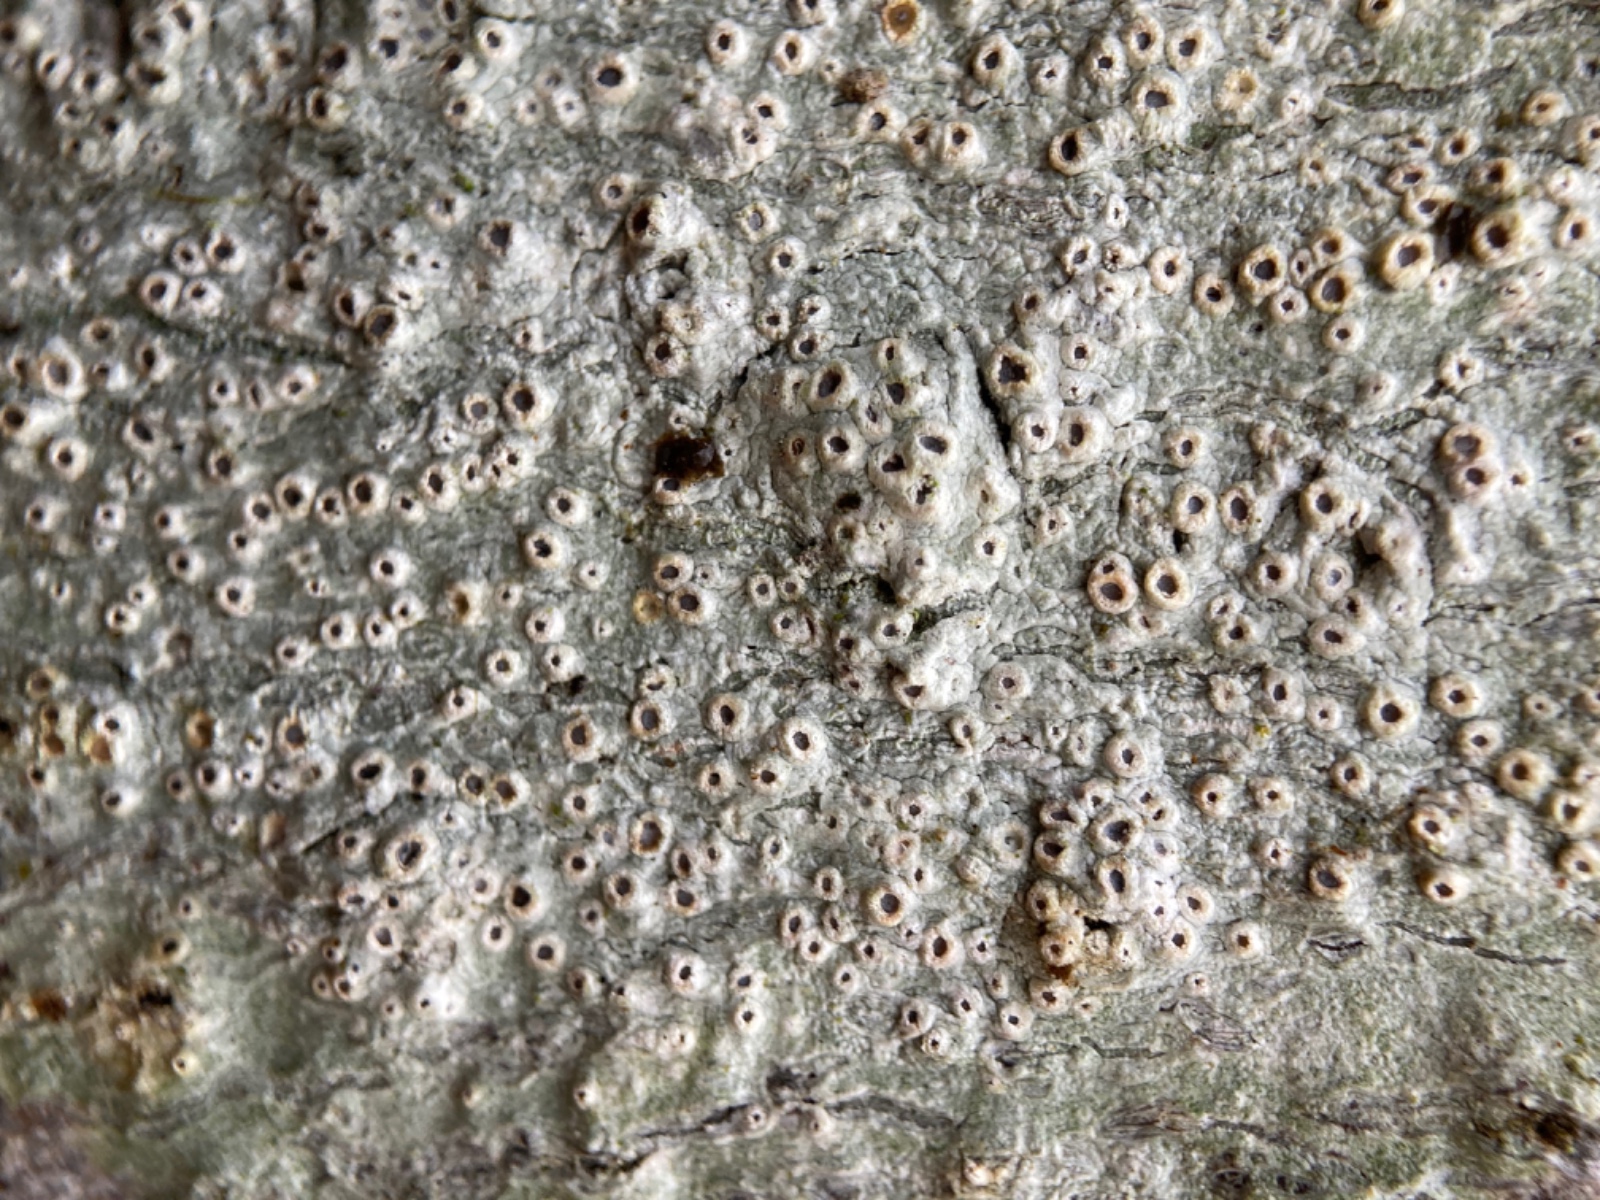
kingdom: Fungi
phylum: Ascomycota
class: Lecanoromycetes
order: Ostropales
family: Graphidaceae
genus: Thelotrema
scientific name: Thelotrema lepadinum
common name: almindelig slørkantlav
